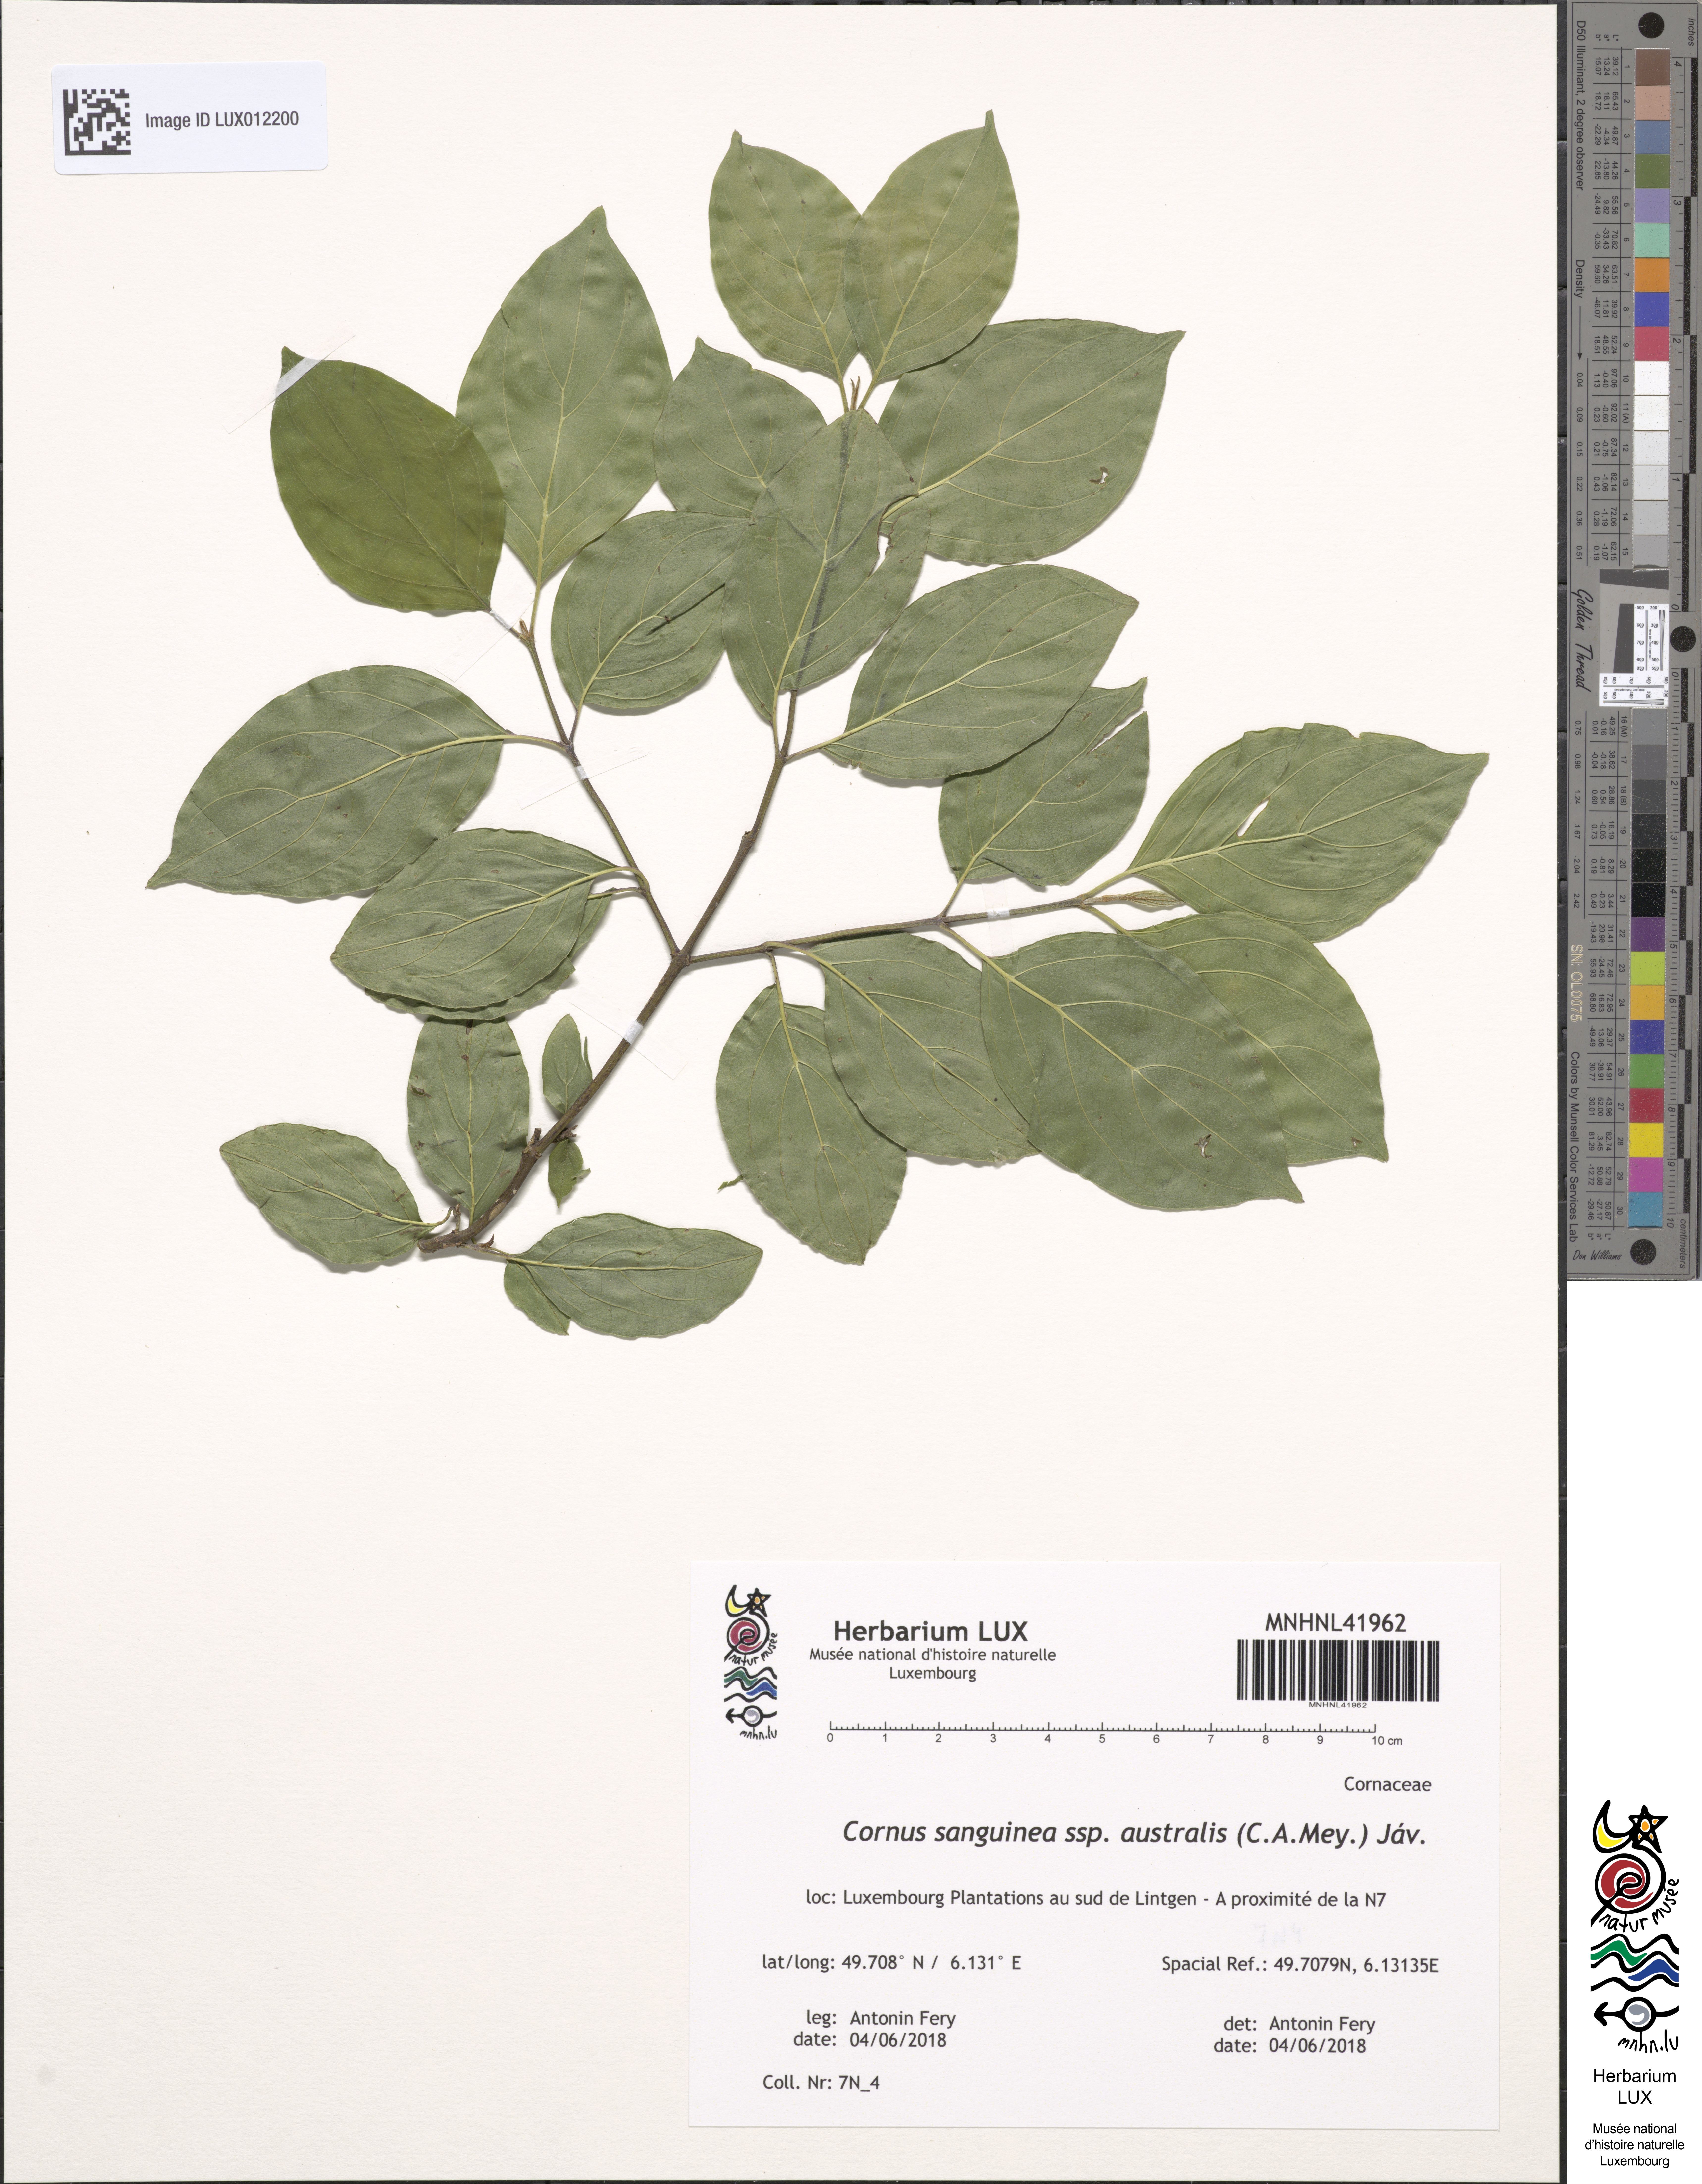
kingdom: Plantae
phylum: Tracheophyta
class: Magnoliopsida
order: Cornales
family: Cornaceae
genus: Cornus
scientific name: Cornus sanguinea
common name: Dogwood
